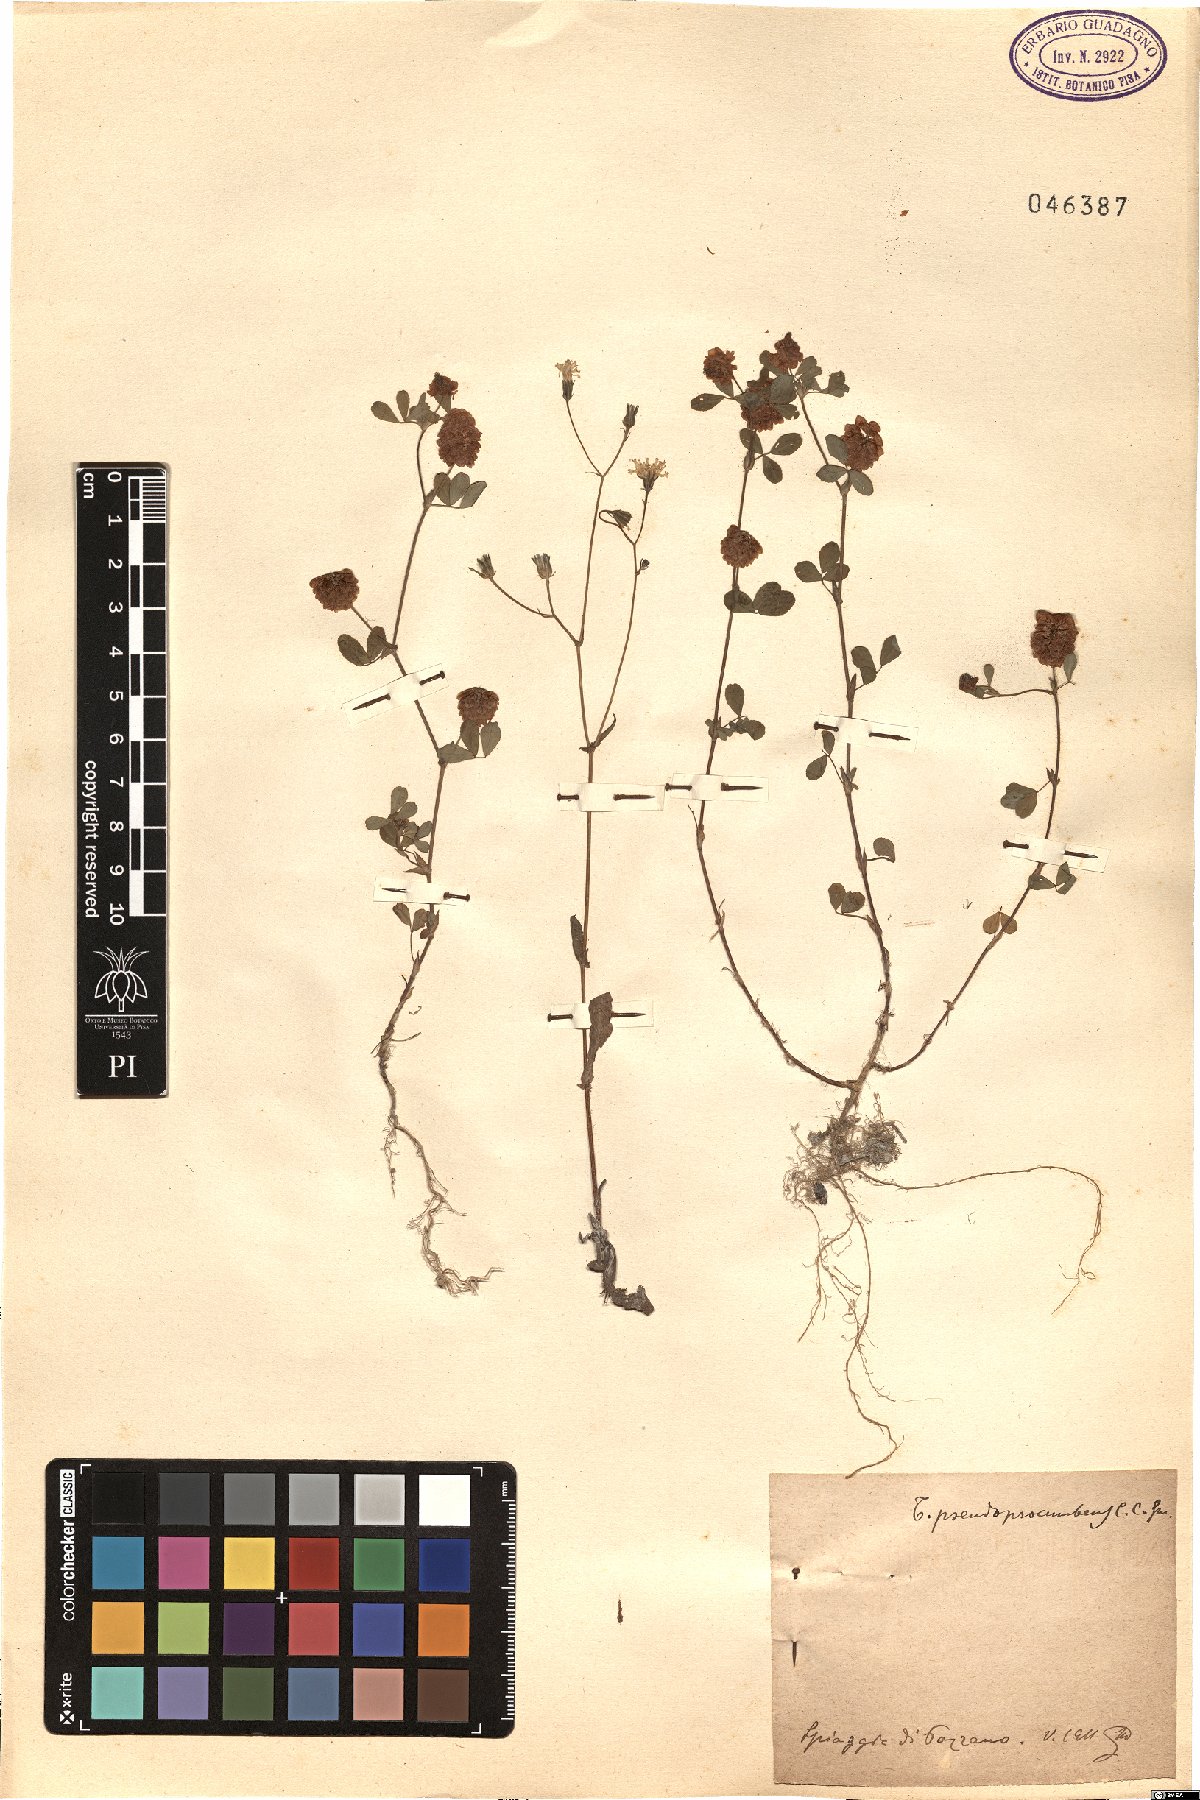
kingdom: Plantae
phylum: Tracheophyta
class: Magnoliopsida
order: Fabales
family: Fabaceae
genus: Trifolium
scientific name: Trifolium campestre
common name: Field clover
